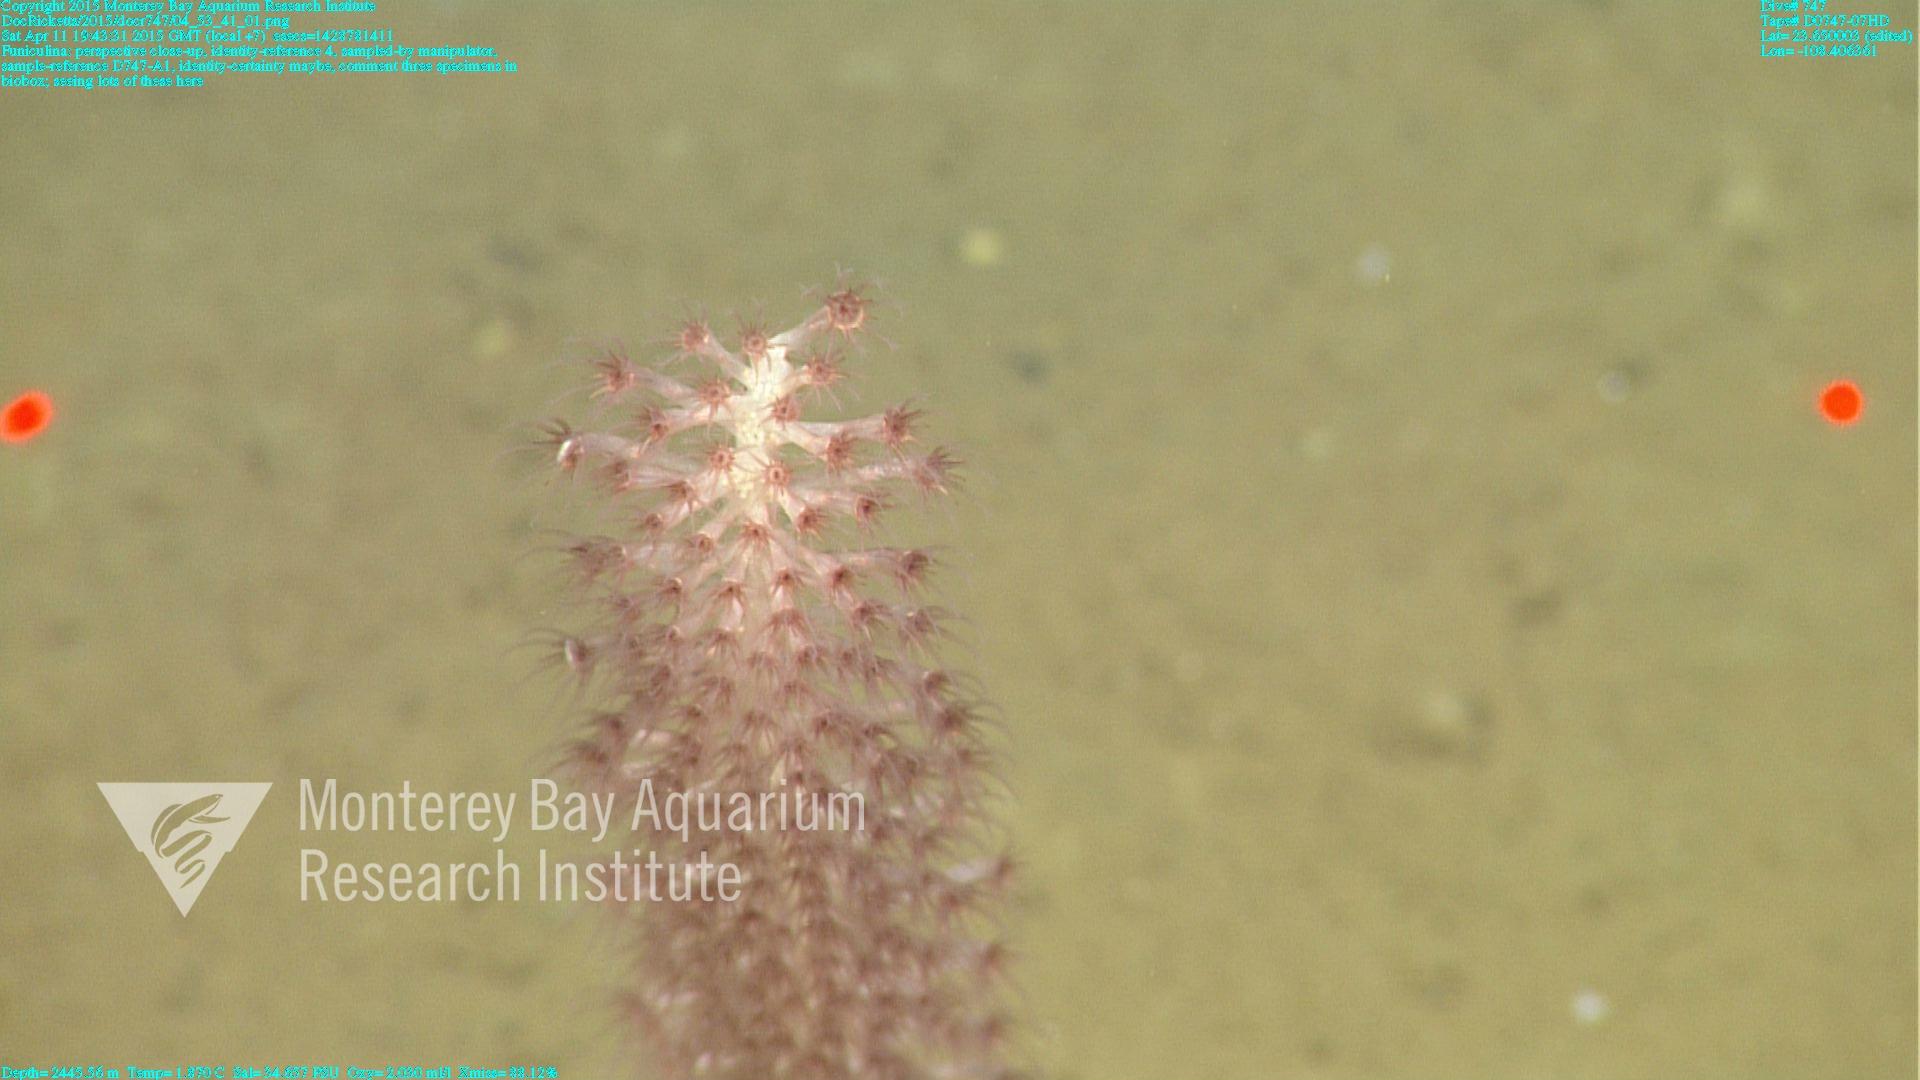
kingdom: Animalia
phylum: Cnidaria
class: Anthozoa
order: Scleralcyonacea
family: Funiculinidae
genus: Funiculina
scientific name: Funiculina
